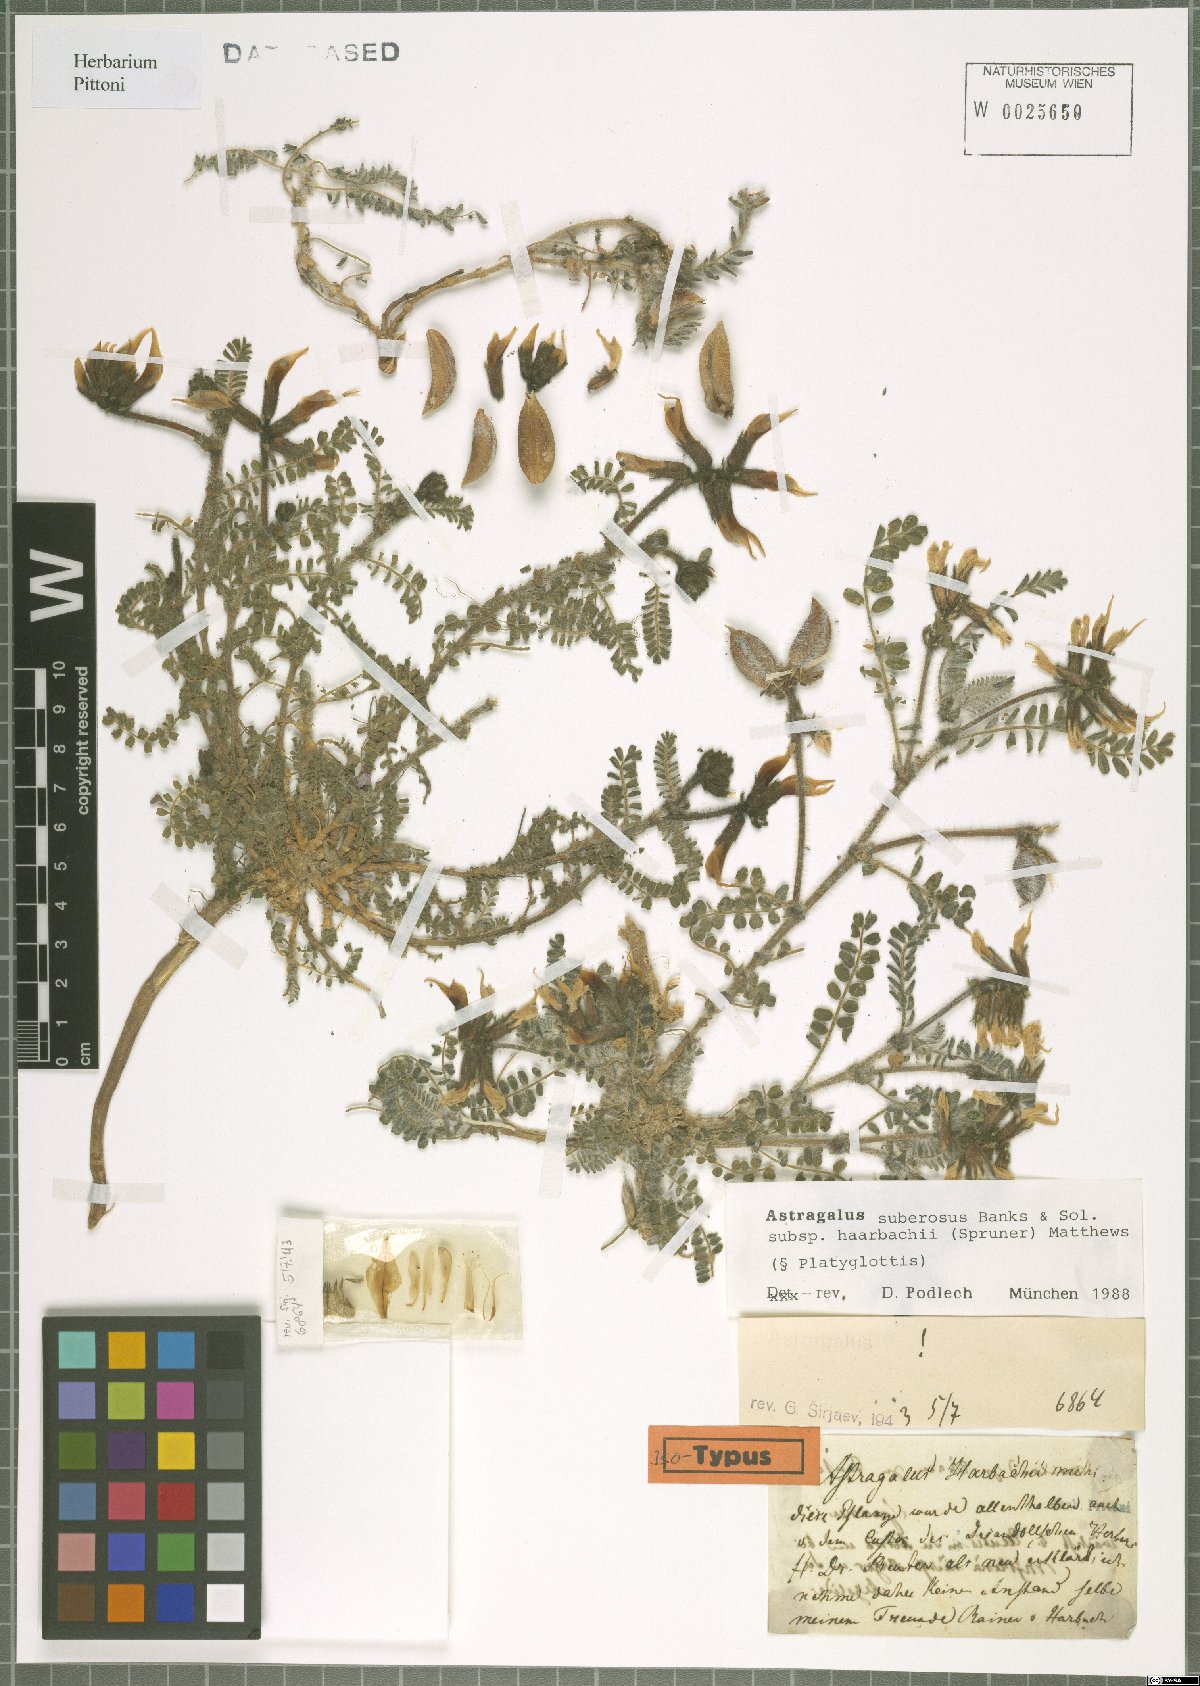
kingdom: Plantae
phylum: Tracheophyta
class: Magnoliopsida
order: Fabales
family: Fabaceae
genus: Astragalus
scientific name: Astragalus suberosus
